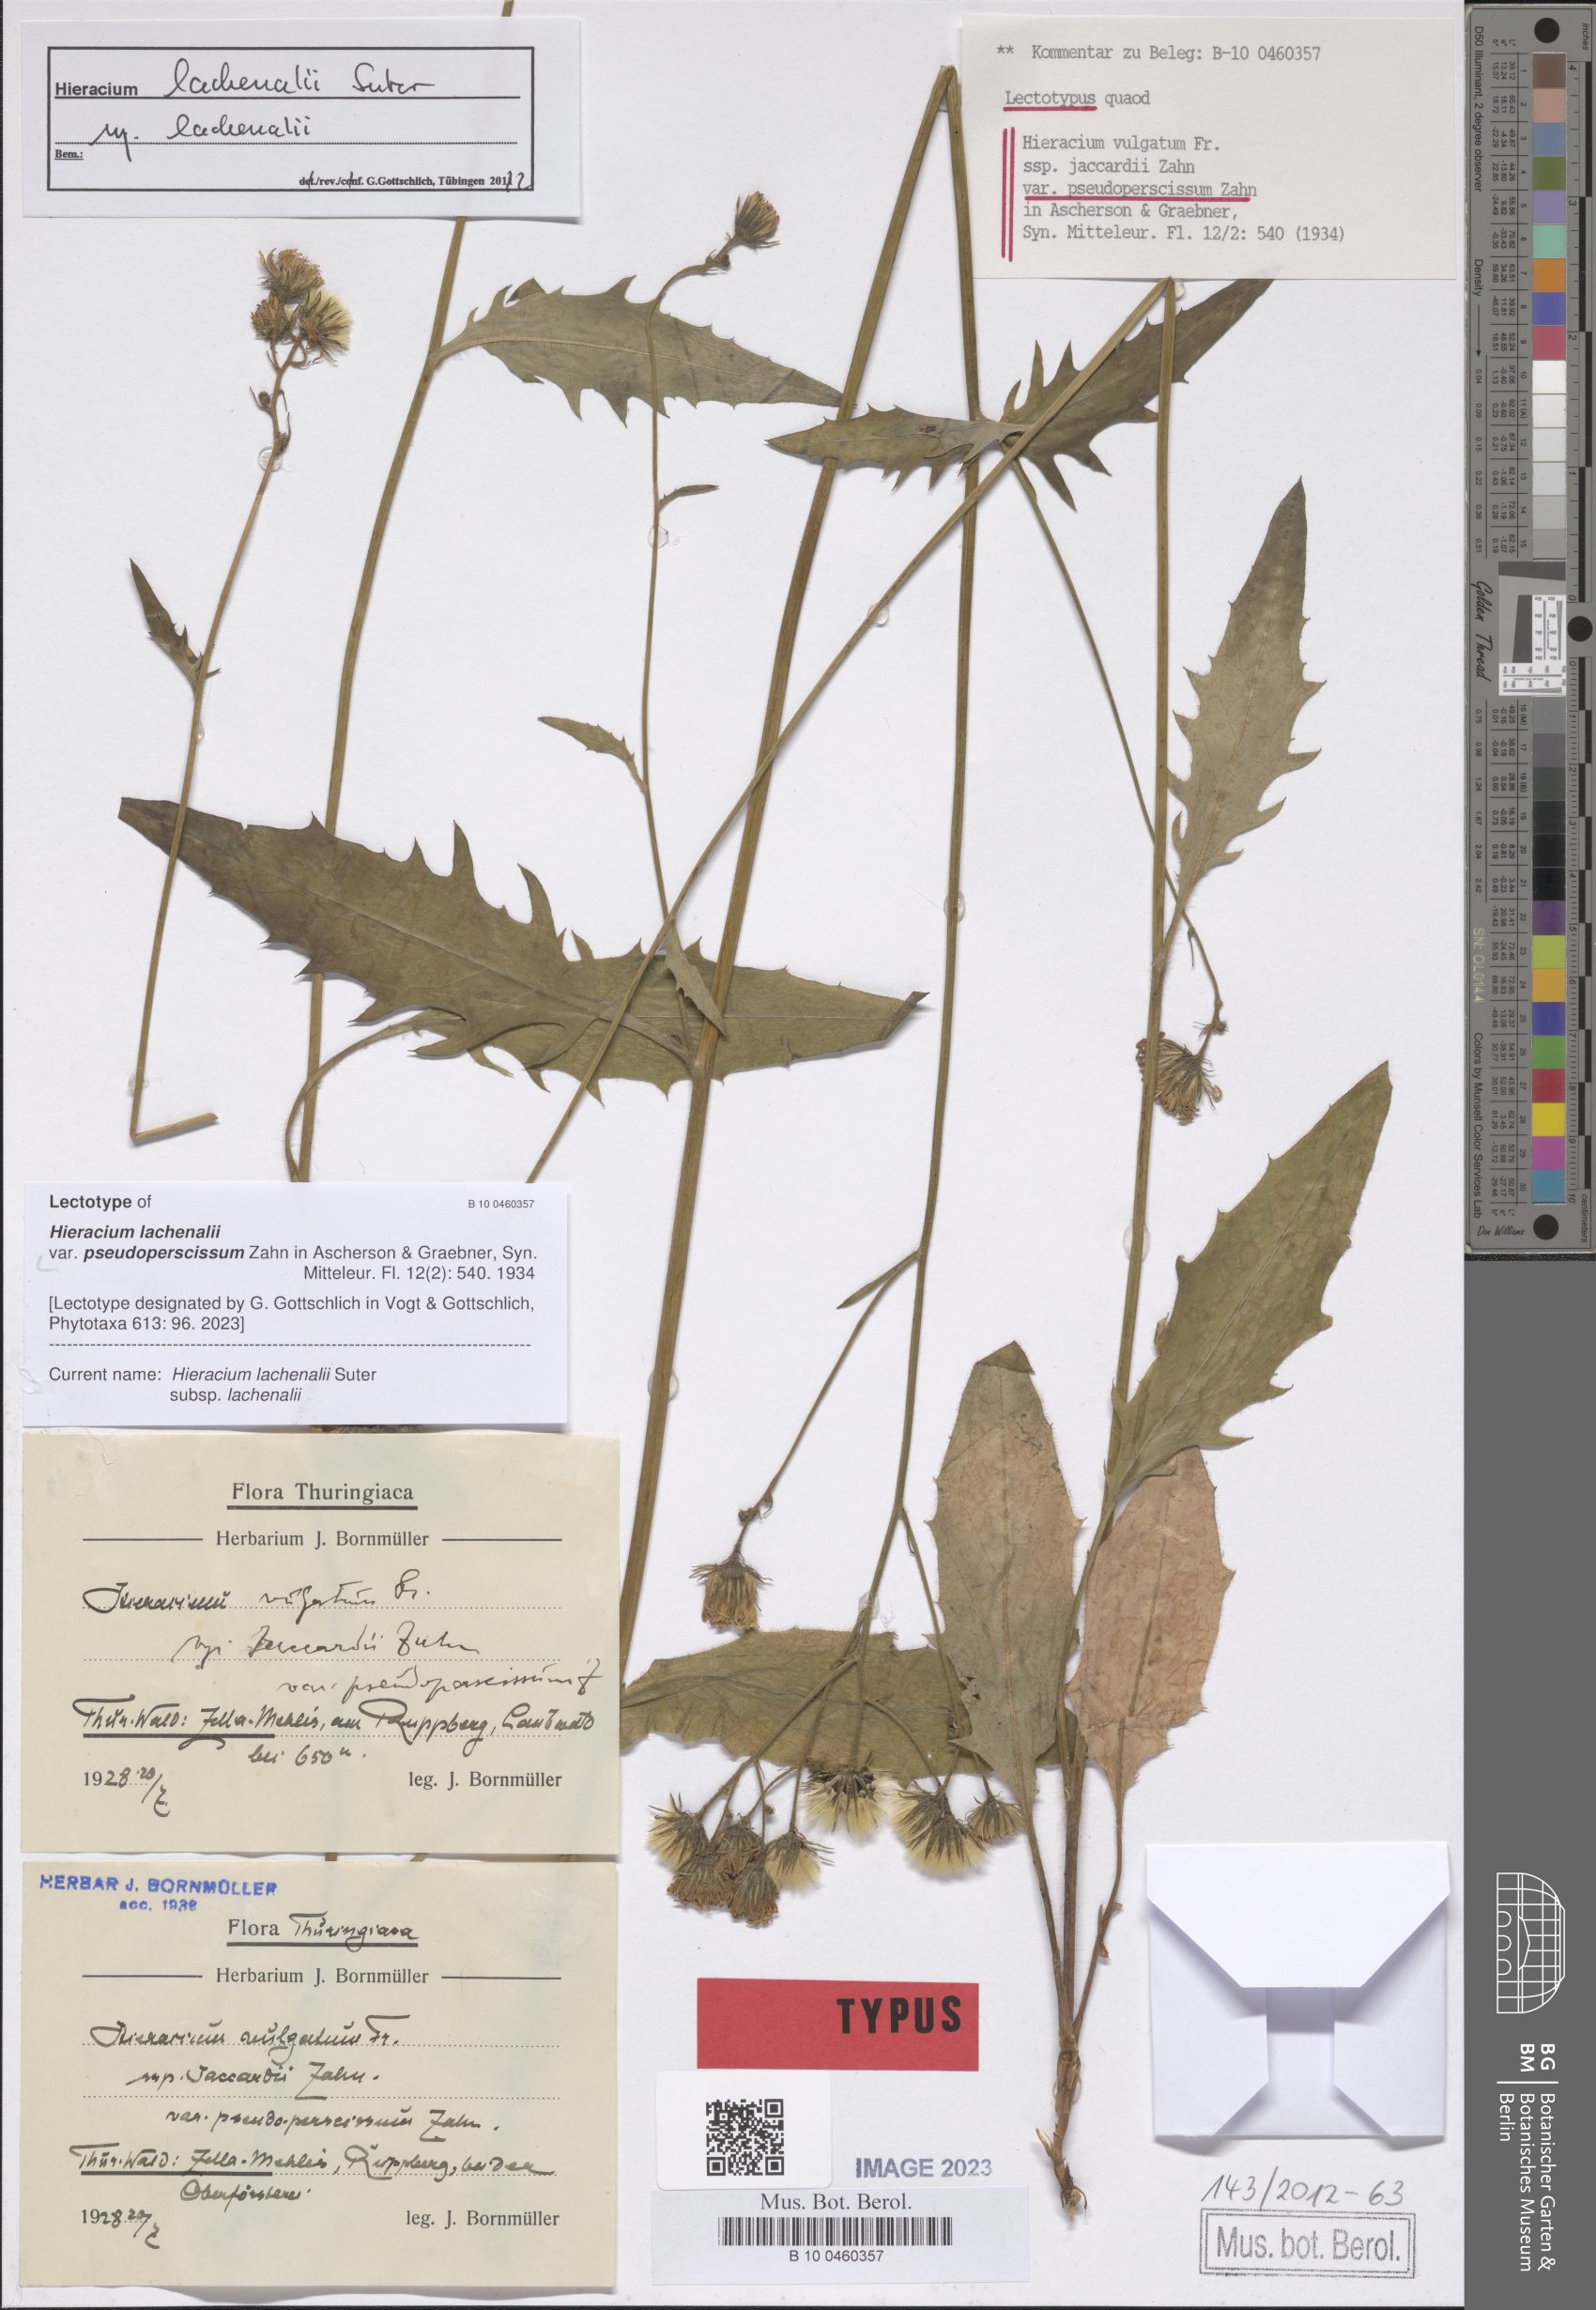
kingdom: Plantae
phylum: Tracheophyta
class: Magnoliopsida
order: Asterales
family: Asteraceae
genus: Hieracium
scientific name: Hieracium vulgatum
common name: Common hawkweed
